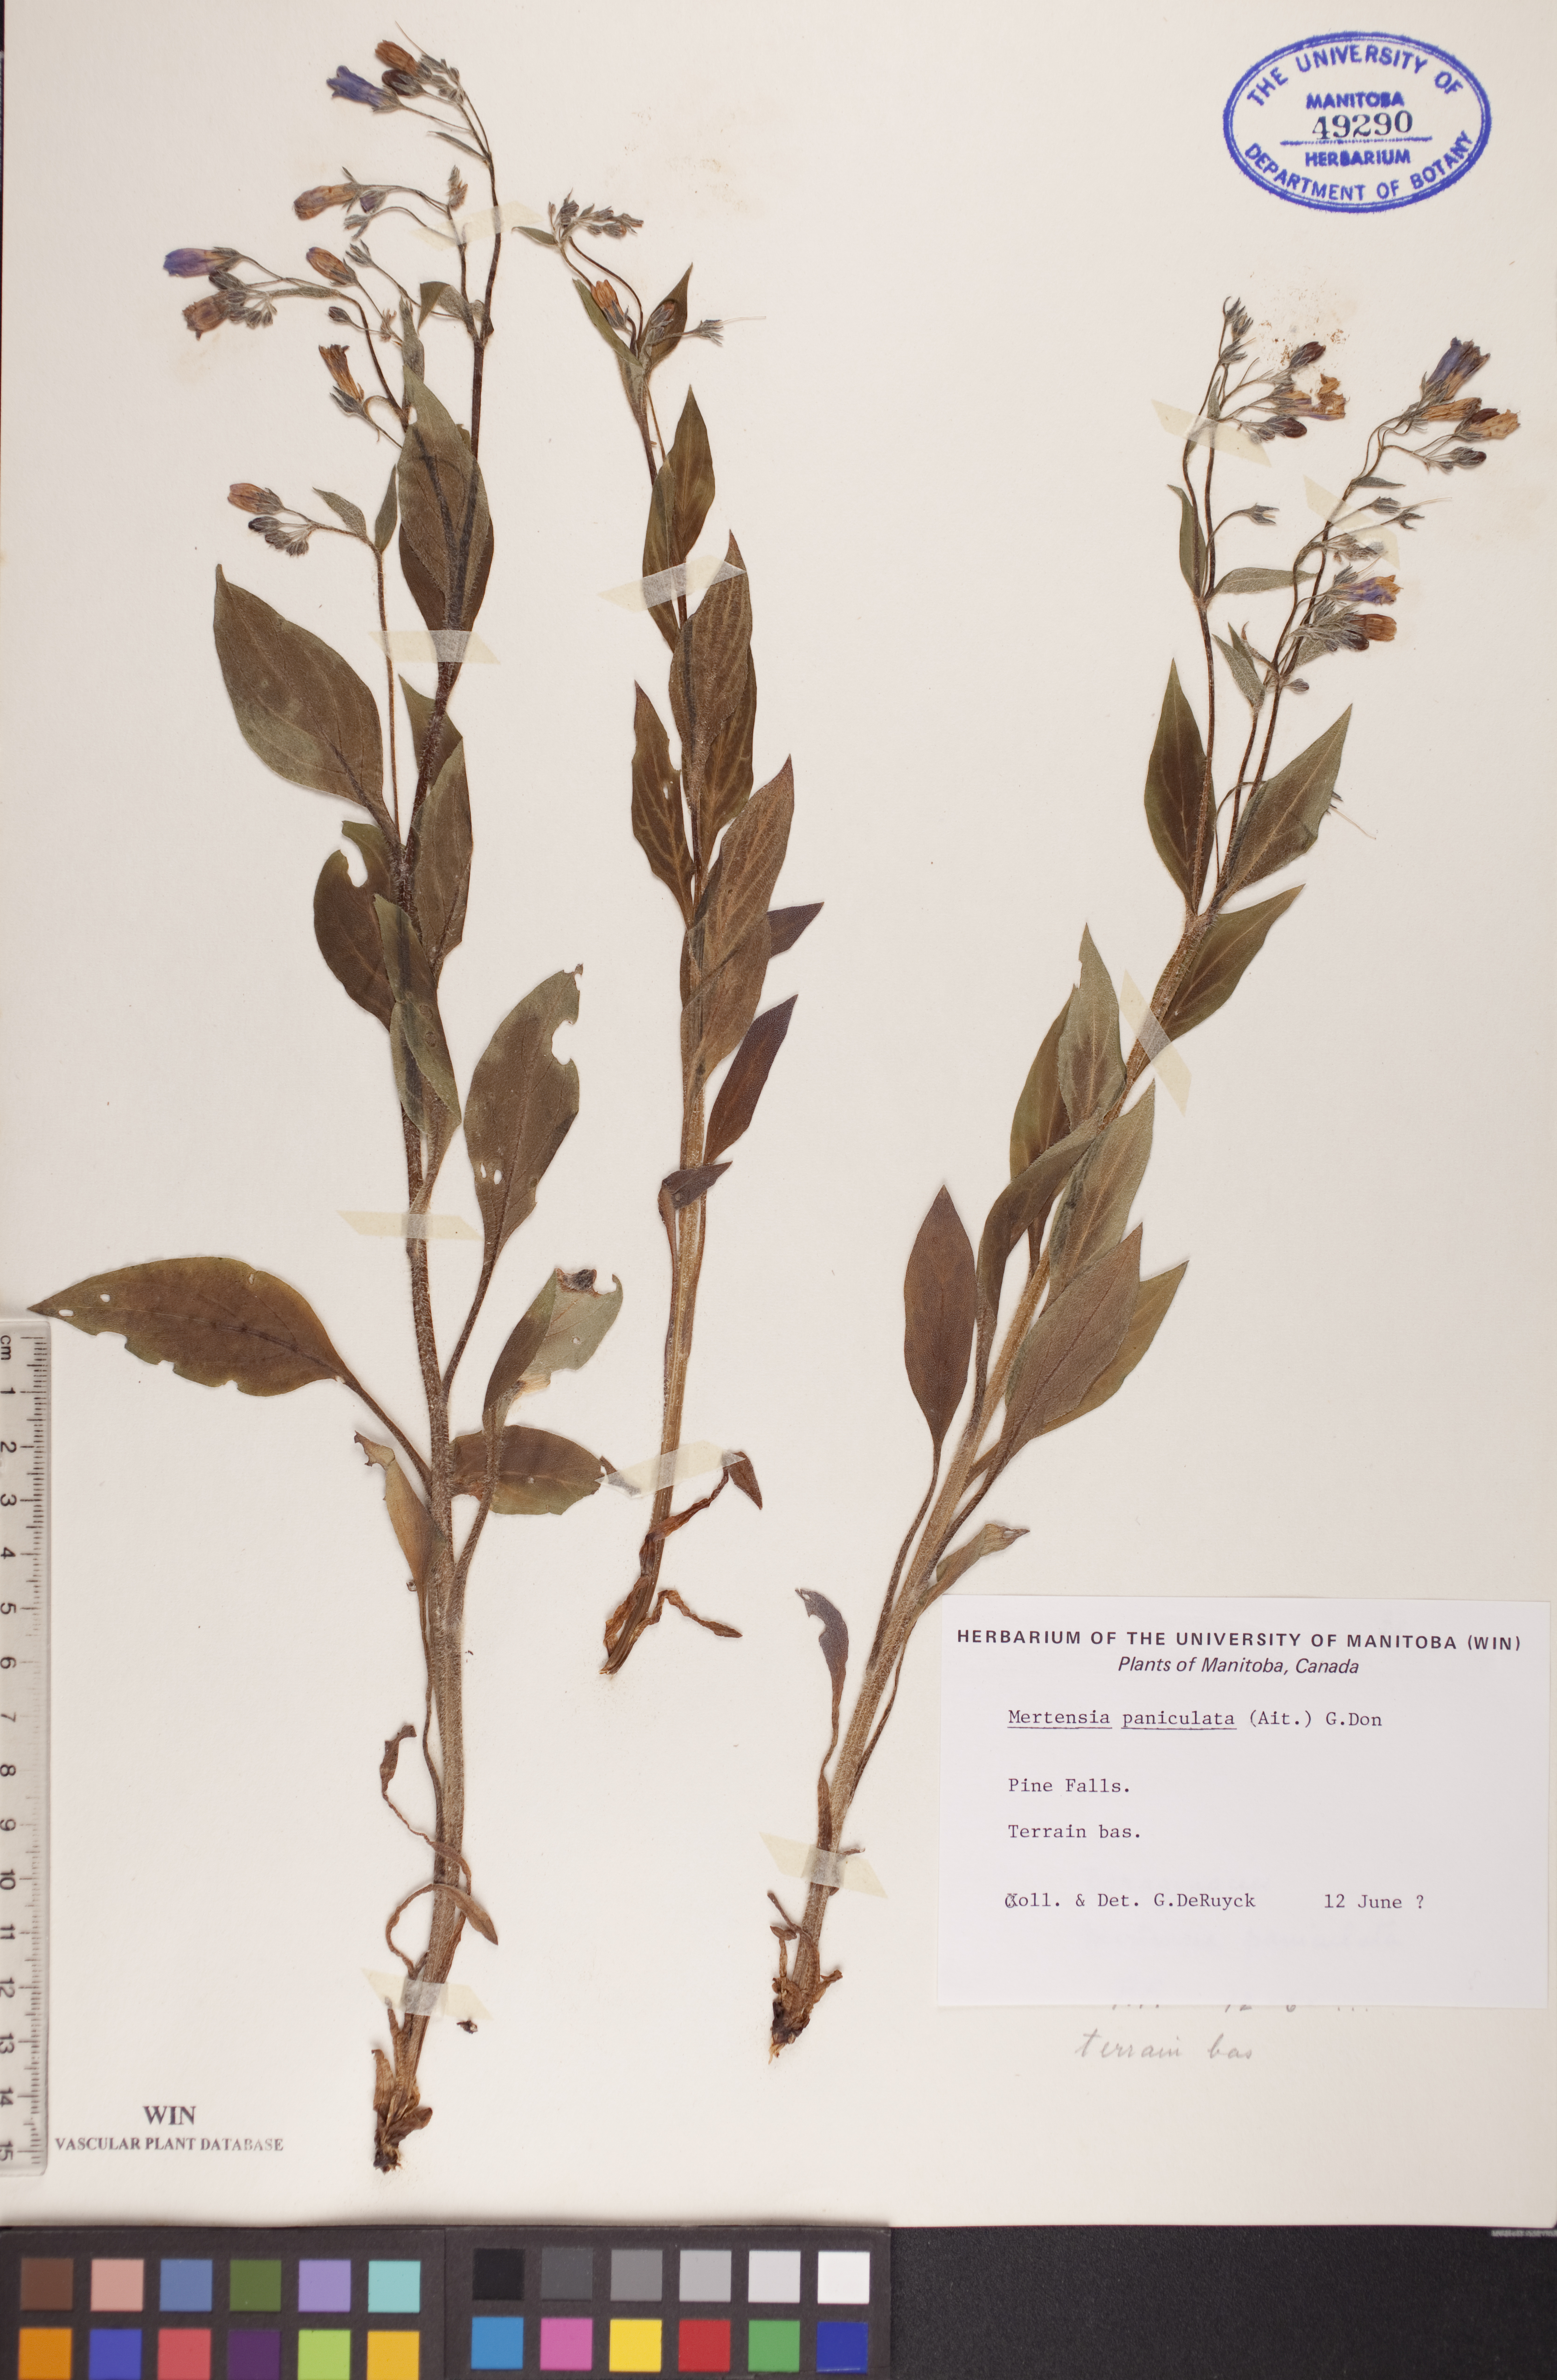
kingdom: Plantae
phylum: Tracheophyta
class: Magnoliopsida
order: Boraginales
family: Boraginaceae
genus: Mertensia
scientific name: Mertensia paniculata
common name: Panicled bluebells
